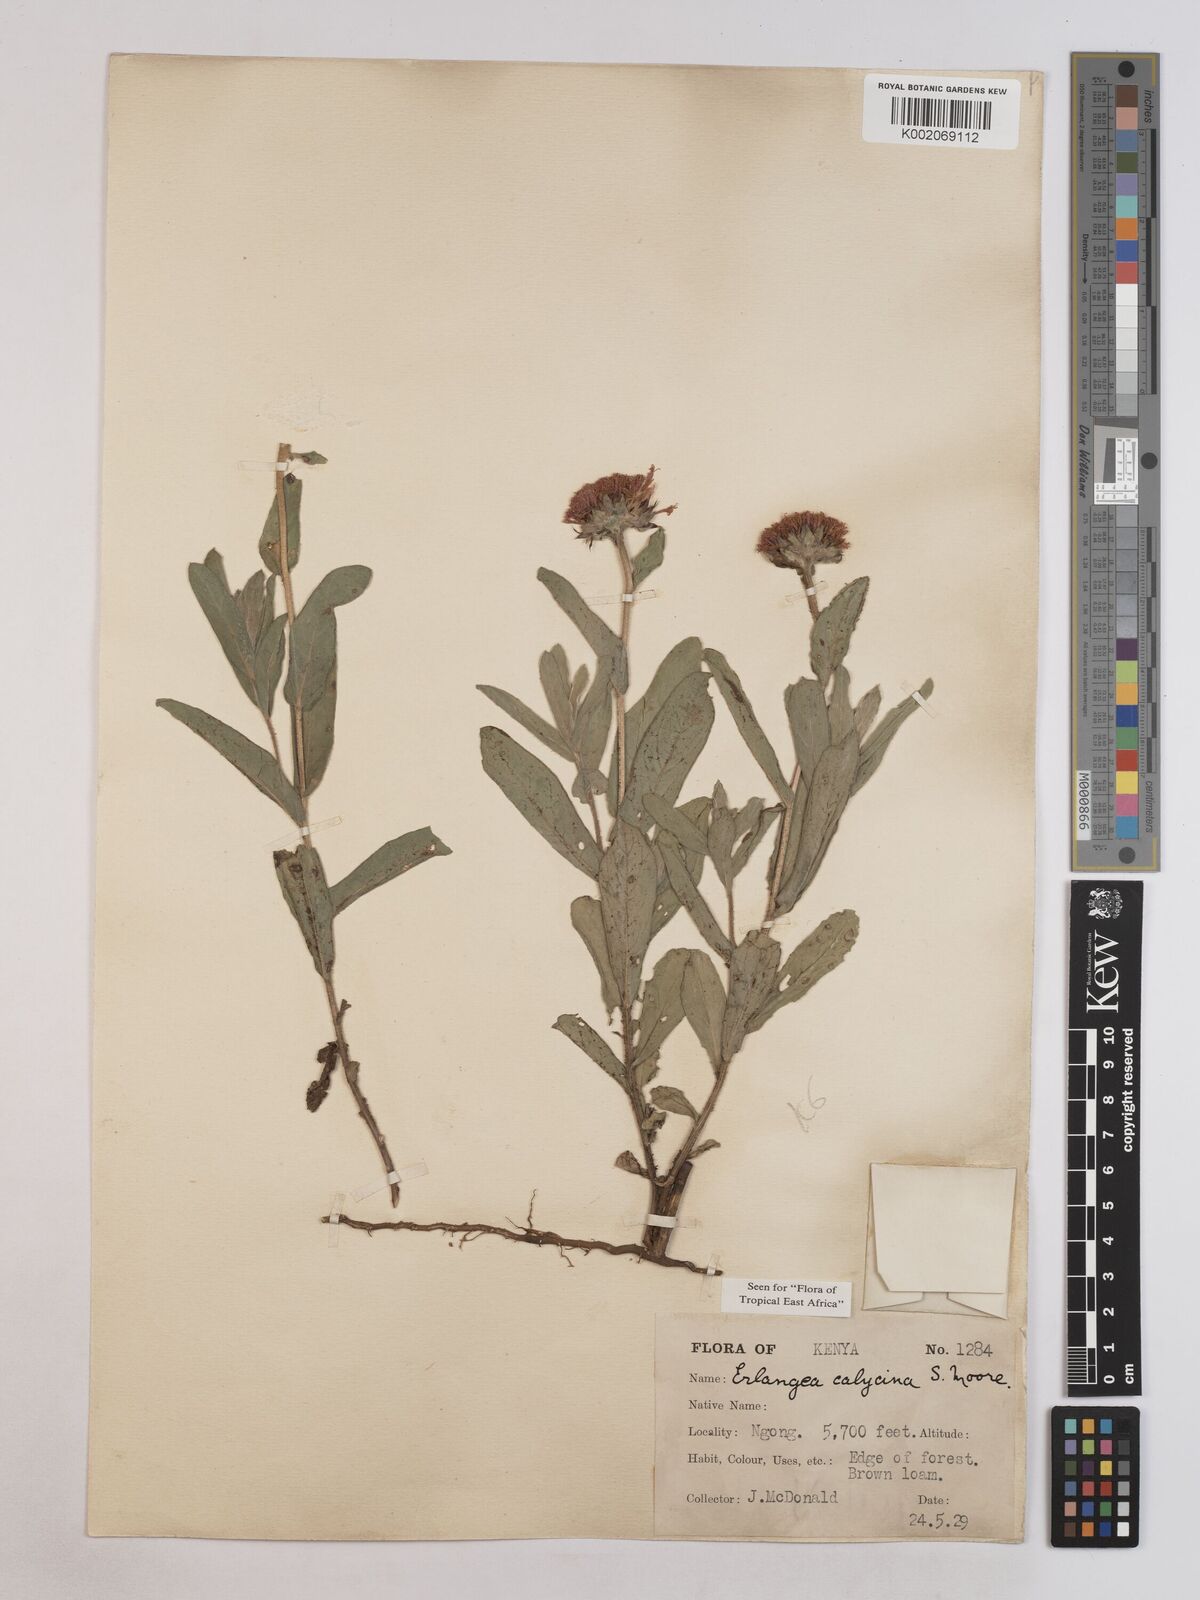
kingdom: Plantae
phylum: Tracheophyta
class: Magnoliopsida
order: Asterales
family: Asteraceae
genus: Erlangea
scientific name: Erlangea calycina
